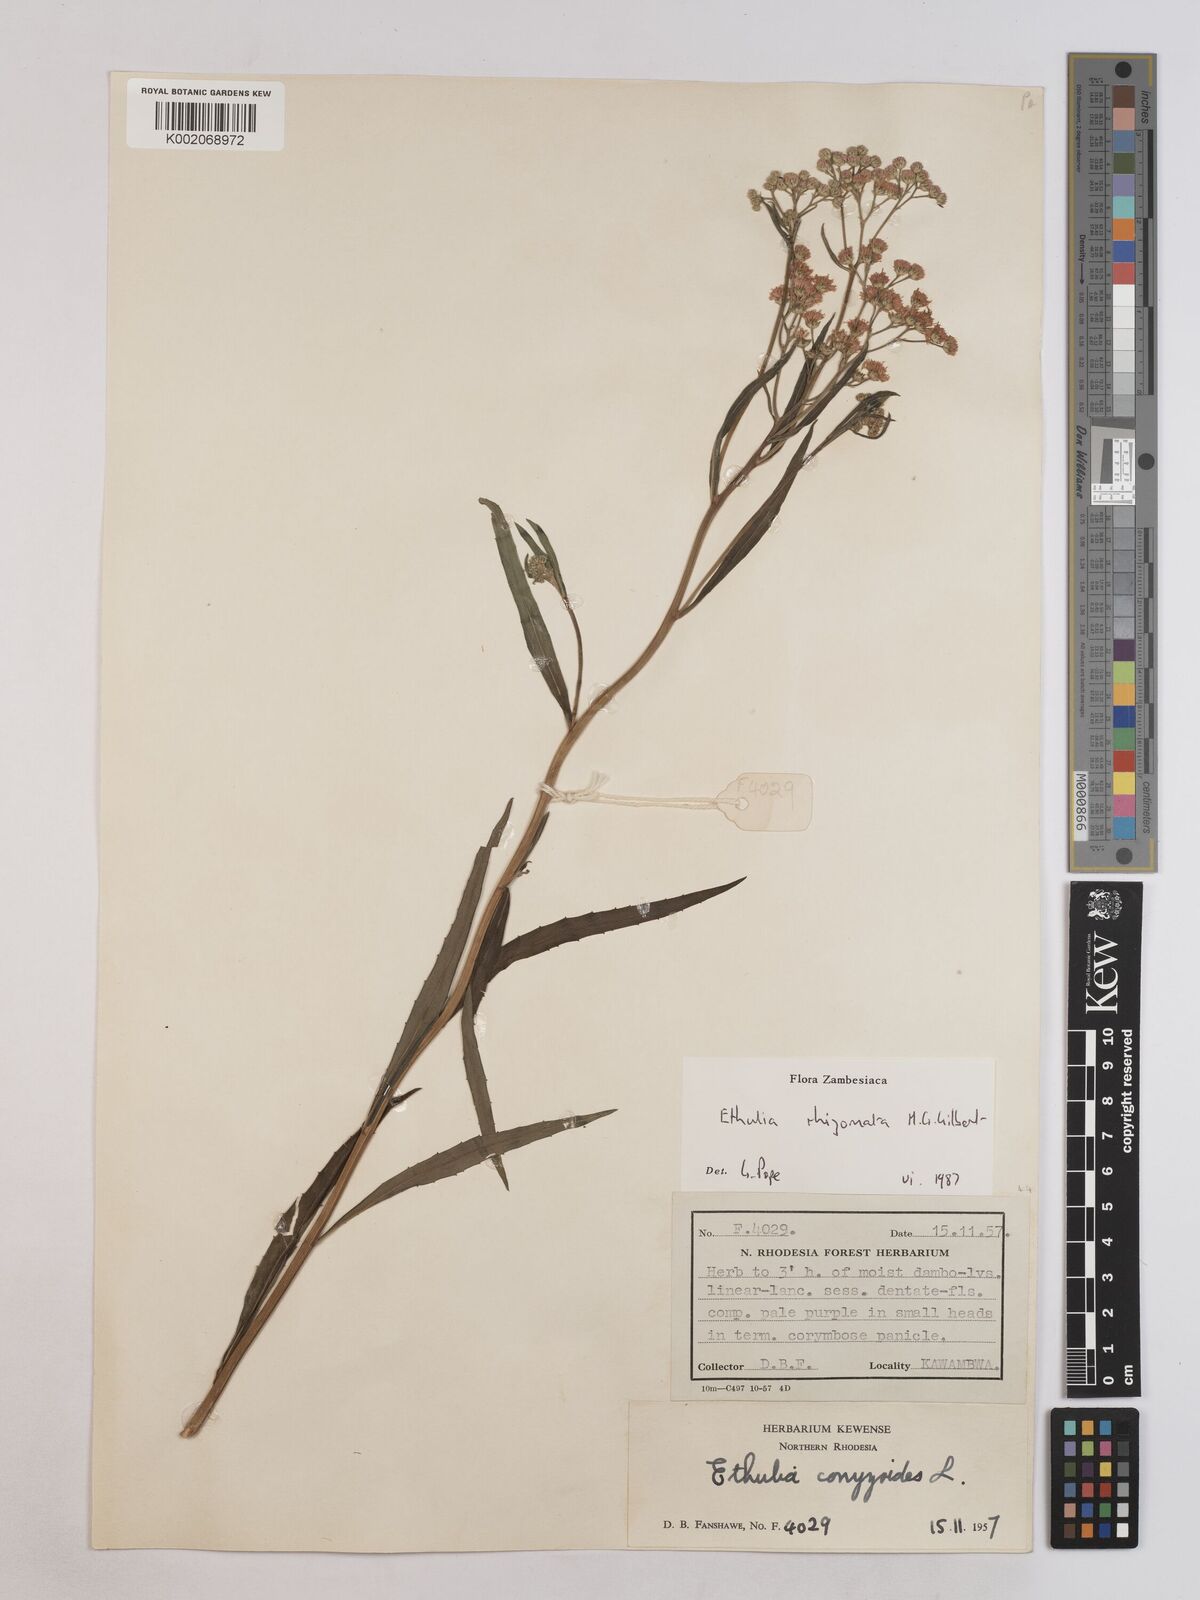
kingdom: Plantae
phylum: Tracheophyta
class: Magnoliopsida
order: Asterales
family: Asteraceae
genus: Ethulia
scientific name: Ethulia rhizomata
